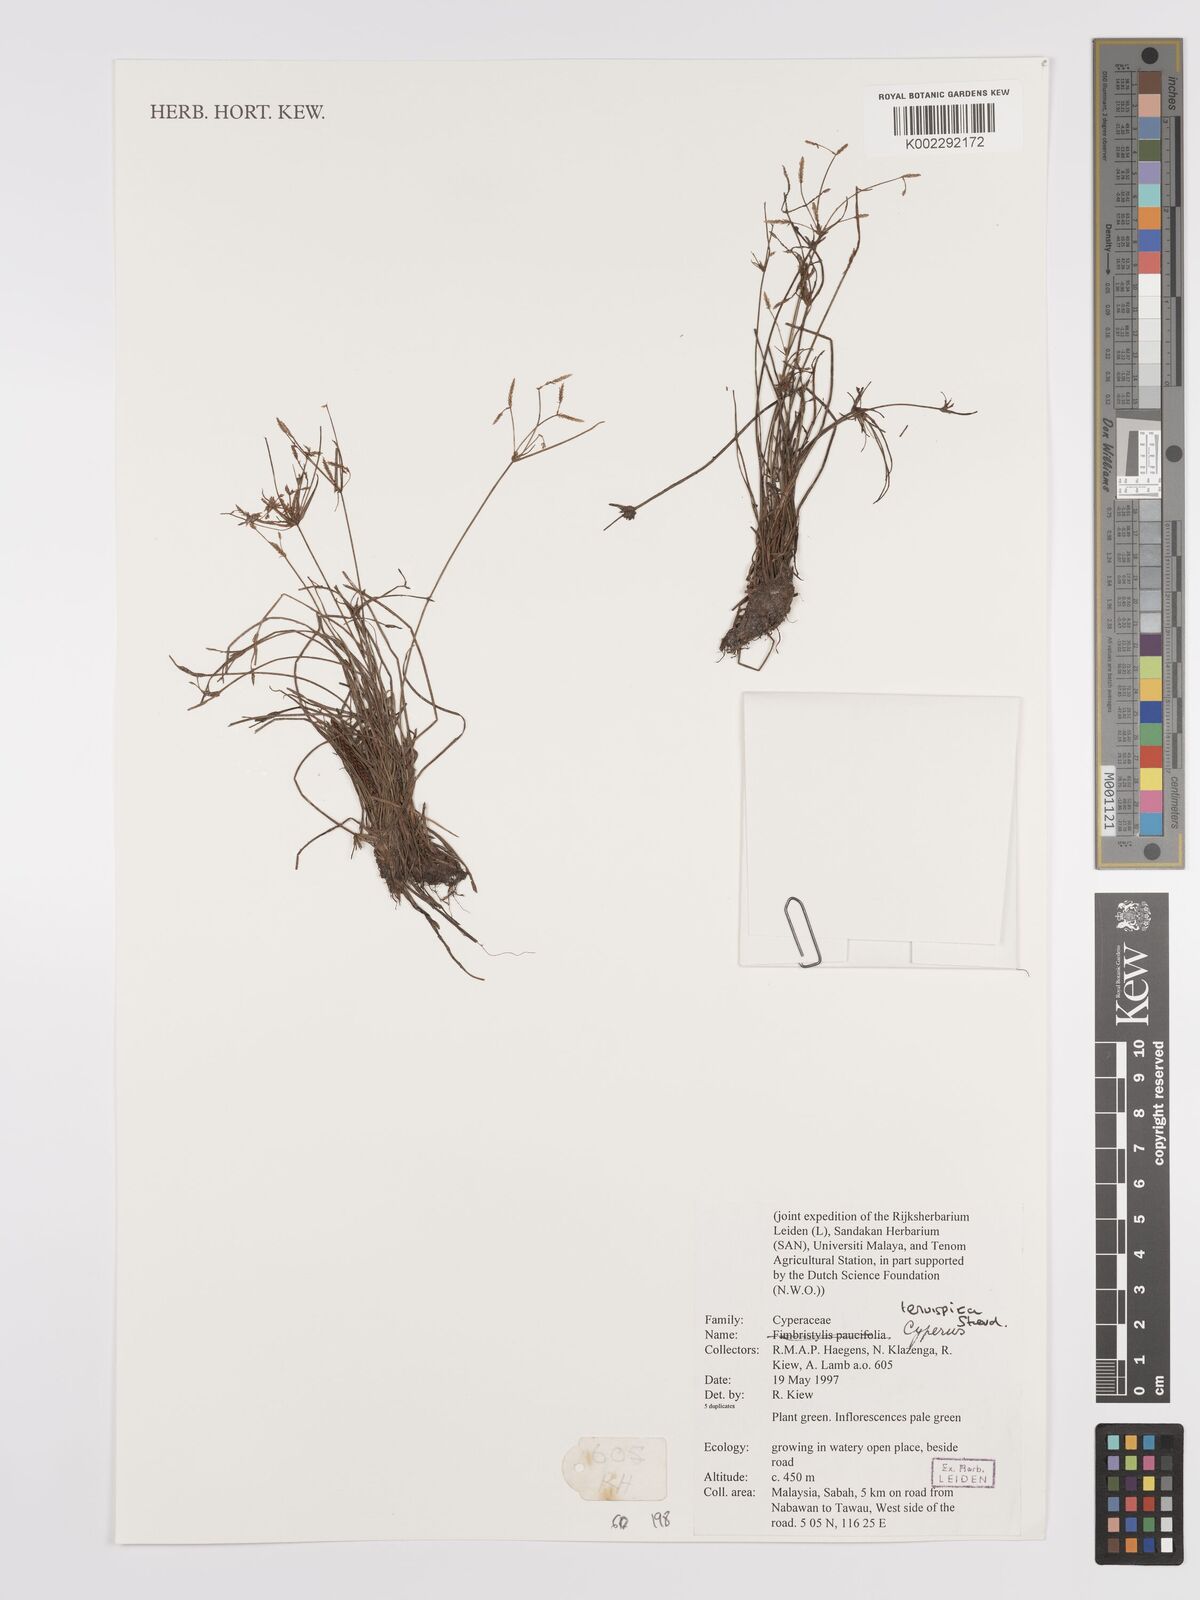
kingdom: Plantae
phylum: Tracheophyta
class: Liliopsida
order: Poales
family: Cyperaceae
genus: Cyperus
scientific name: Cyperus tenuispica
